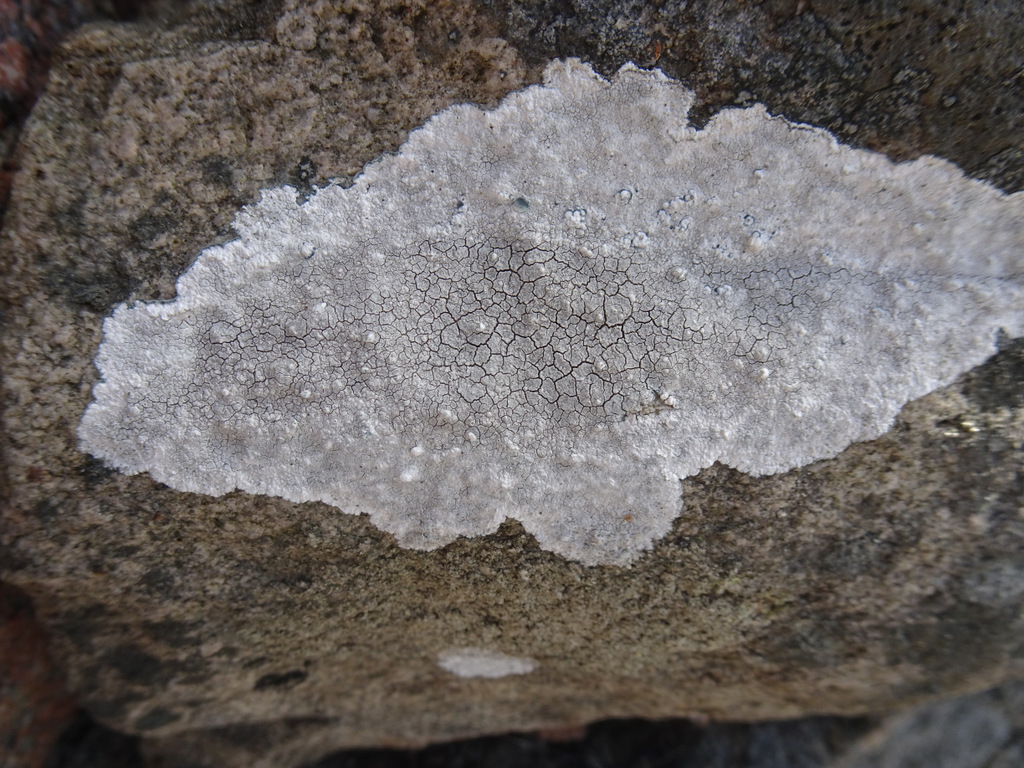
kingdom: Fungi
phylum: Ascomycota
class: Lecanoromycetes
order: Lecanorales
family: Lecanoraceae
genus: Glaucomaria
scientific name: Glaucomaria rupicola
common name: stengærde-kantskivelav
